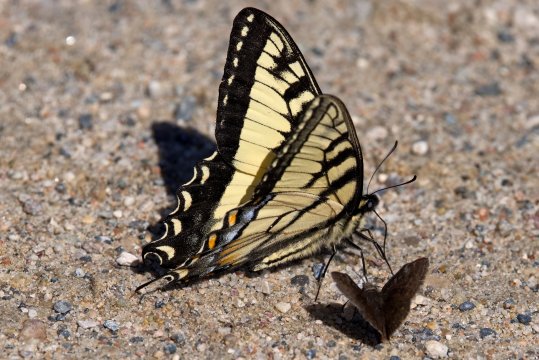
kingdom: Animalia
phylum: Arthropoda
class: Insecta
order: Lepidoptera
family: Papilionidae
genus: Pterourus
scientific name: Pterourus canadensis
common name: Canadian Tiger Swallowtail
